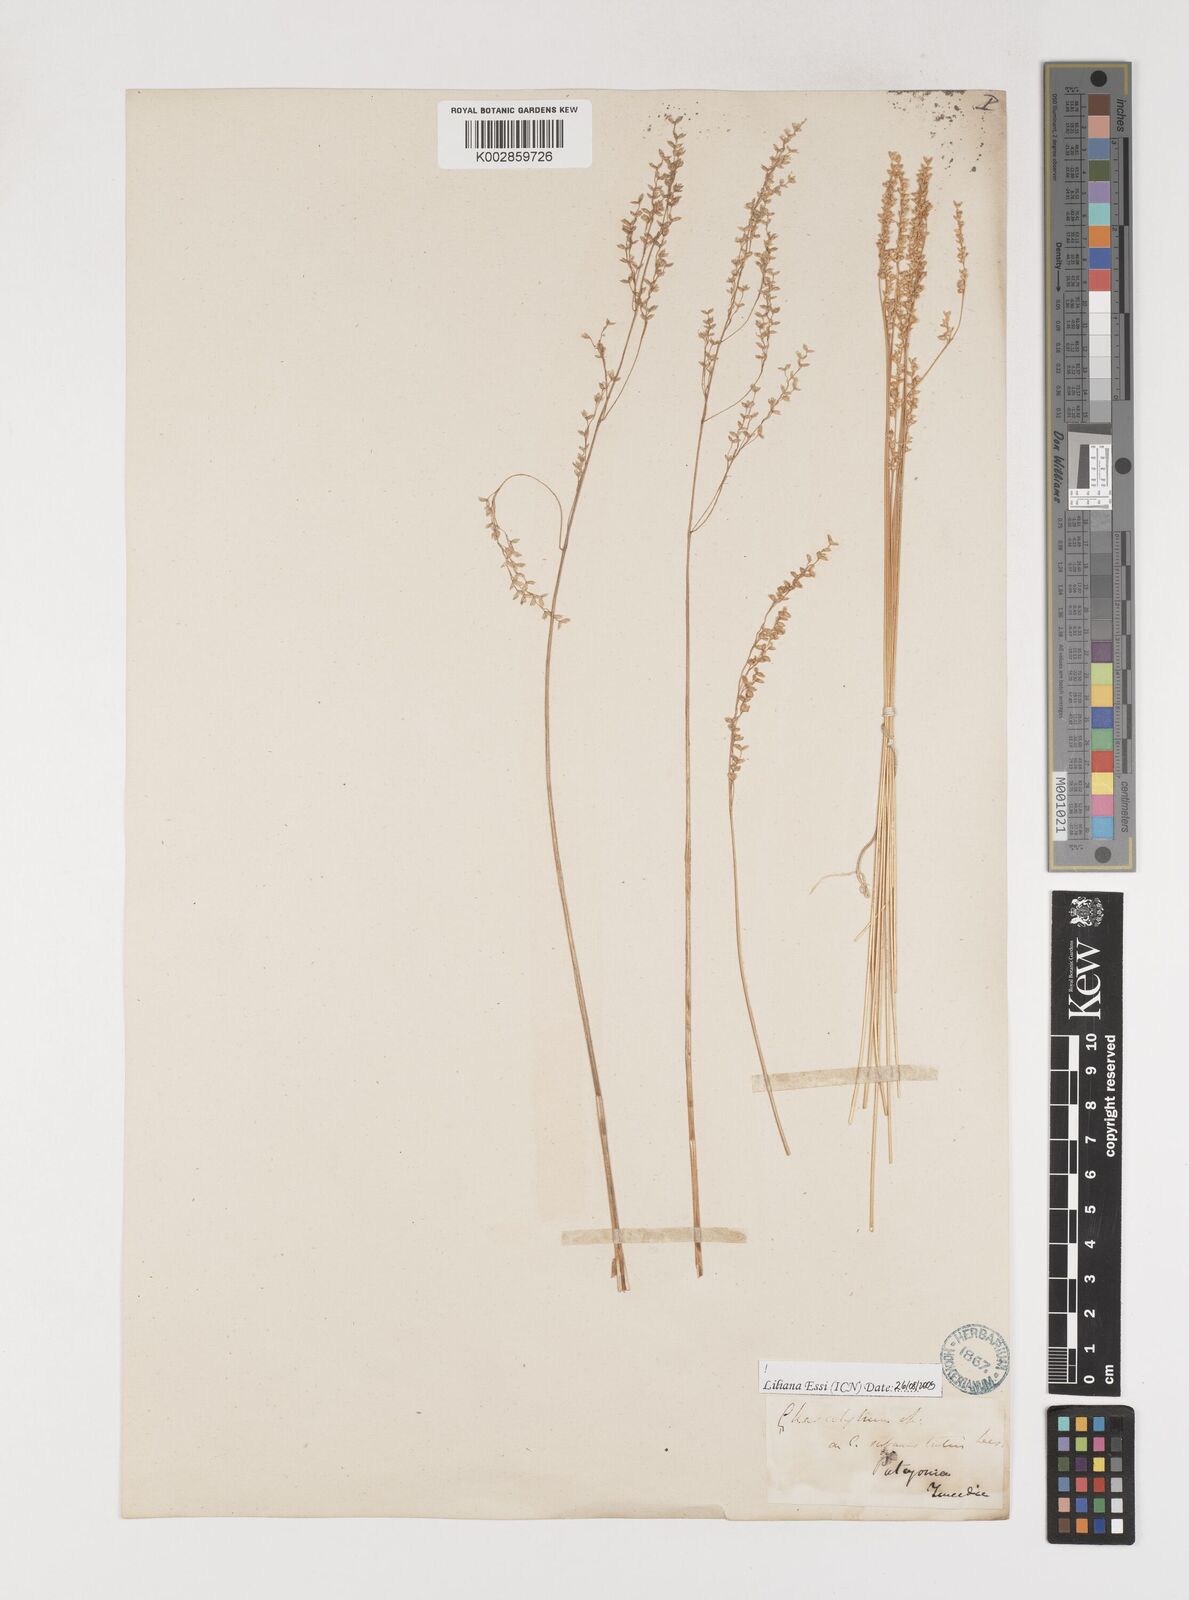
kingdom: Plantae
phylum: Tracheophyta
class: Liliopsida
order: Poales
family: Poaceae
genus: Chascolytrum
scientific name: Chascolytrum subaristatum
